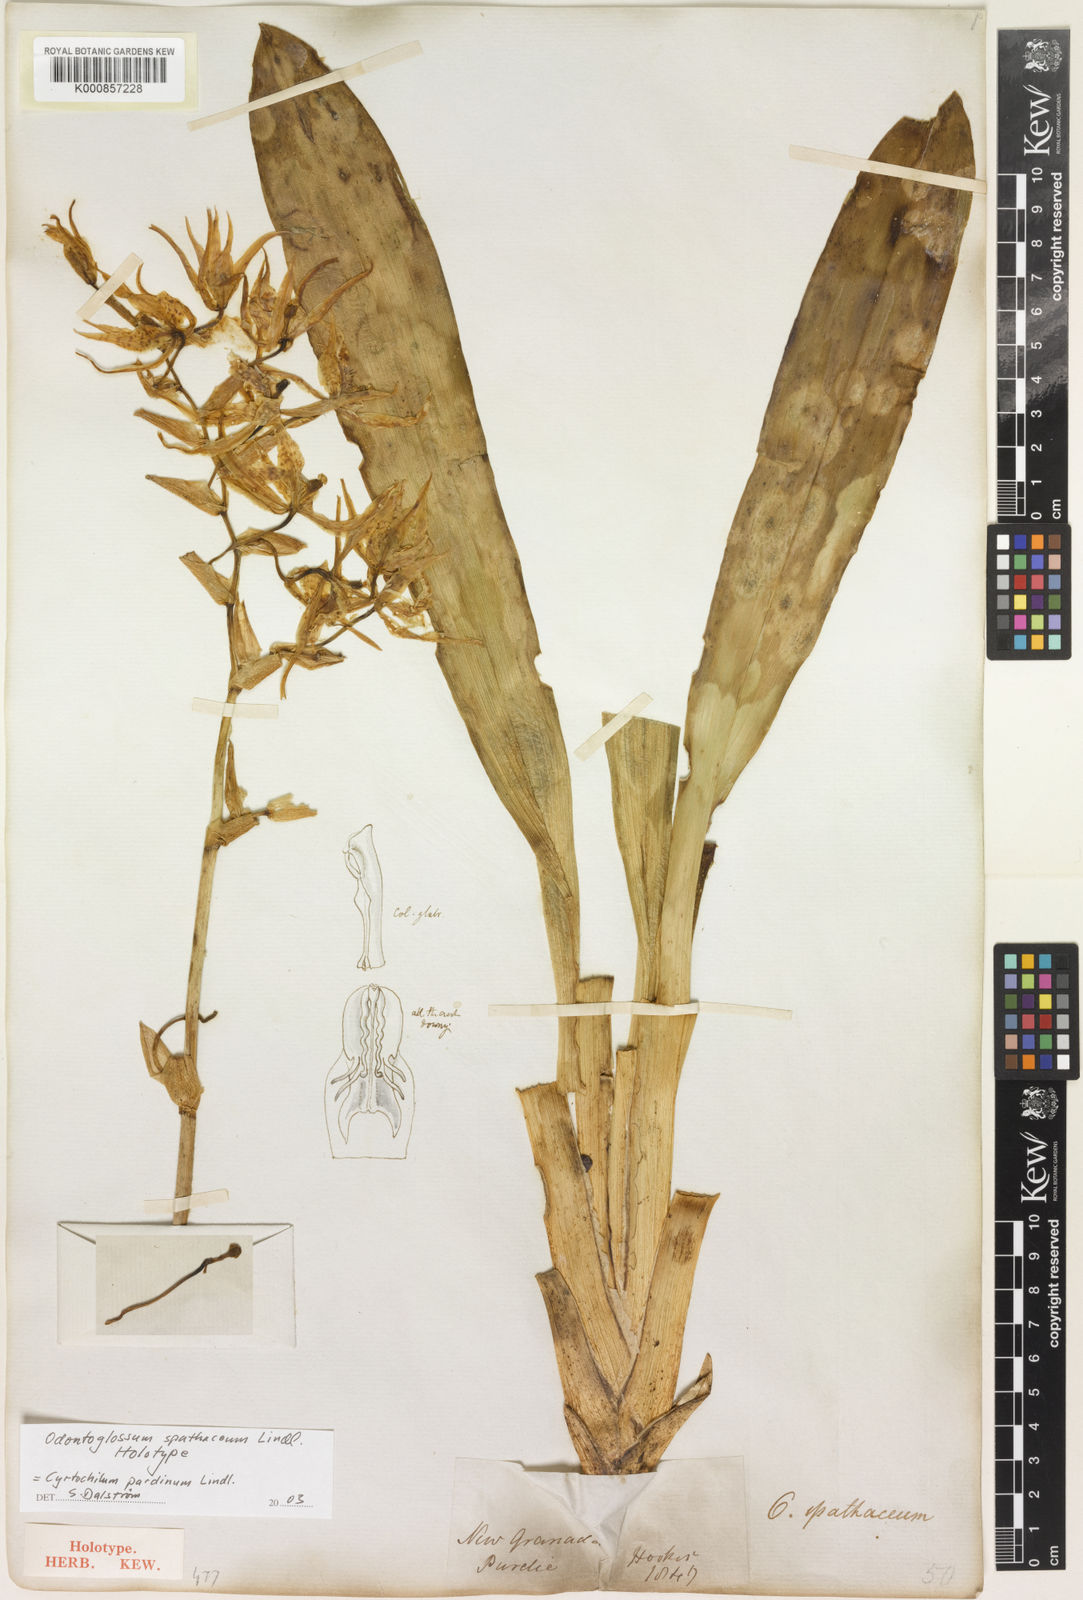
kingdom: Plantae
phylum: Tracheophyta
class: Liliopsida
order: Asparagales
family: Orchidaceae
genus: Cyrtochilum
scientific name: Cyrtochilum pardinum
